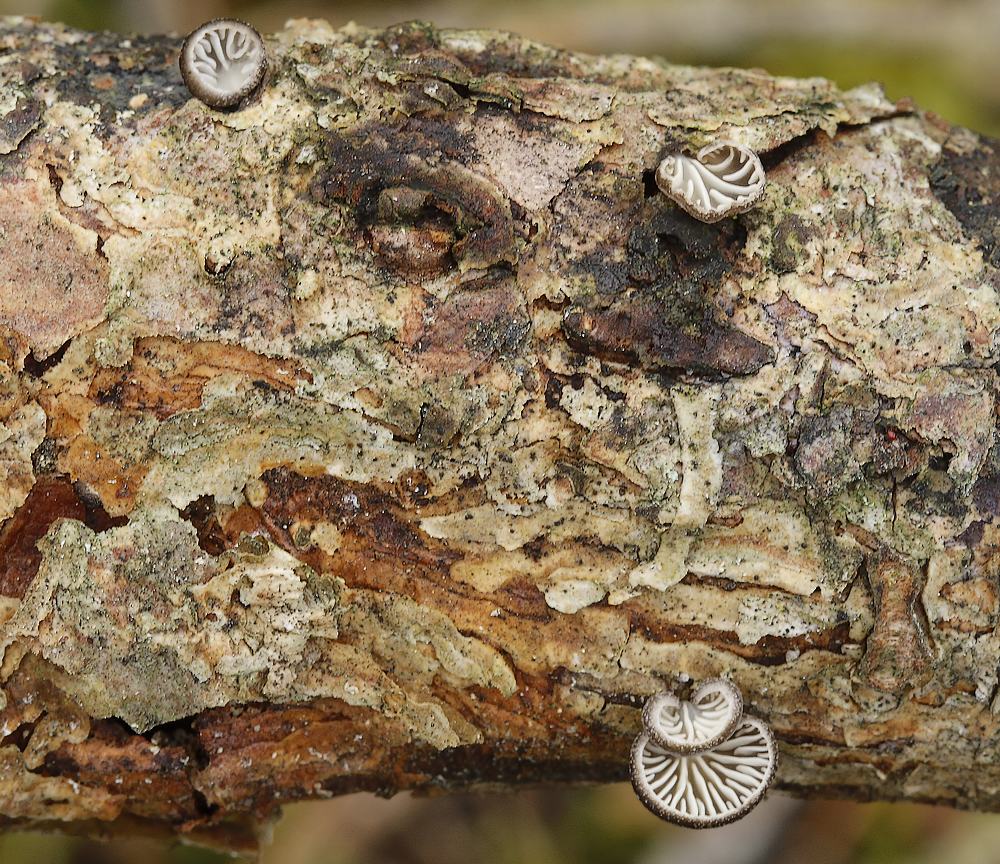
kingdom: Fungi
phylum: Basidiomycota
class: Agaricomycetes
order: Agaricales
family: Pleurotaceae
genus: Hohenbuehelia
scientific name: Hohenbuehelia atrocoerulea
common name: blålig filthat
